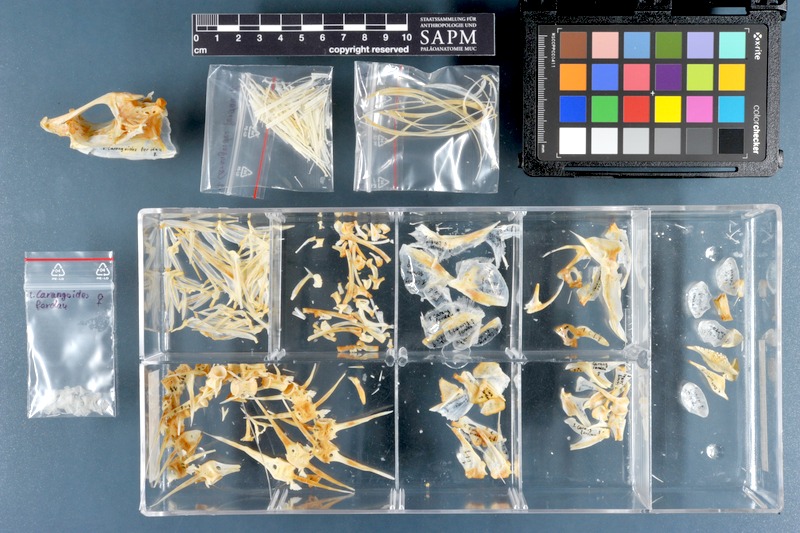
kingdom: Animalia
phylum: Chordata
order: Perciformes
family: Carangidae
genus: Carangoides
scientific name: Carangoides ferdau
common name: Blue trevally
